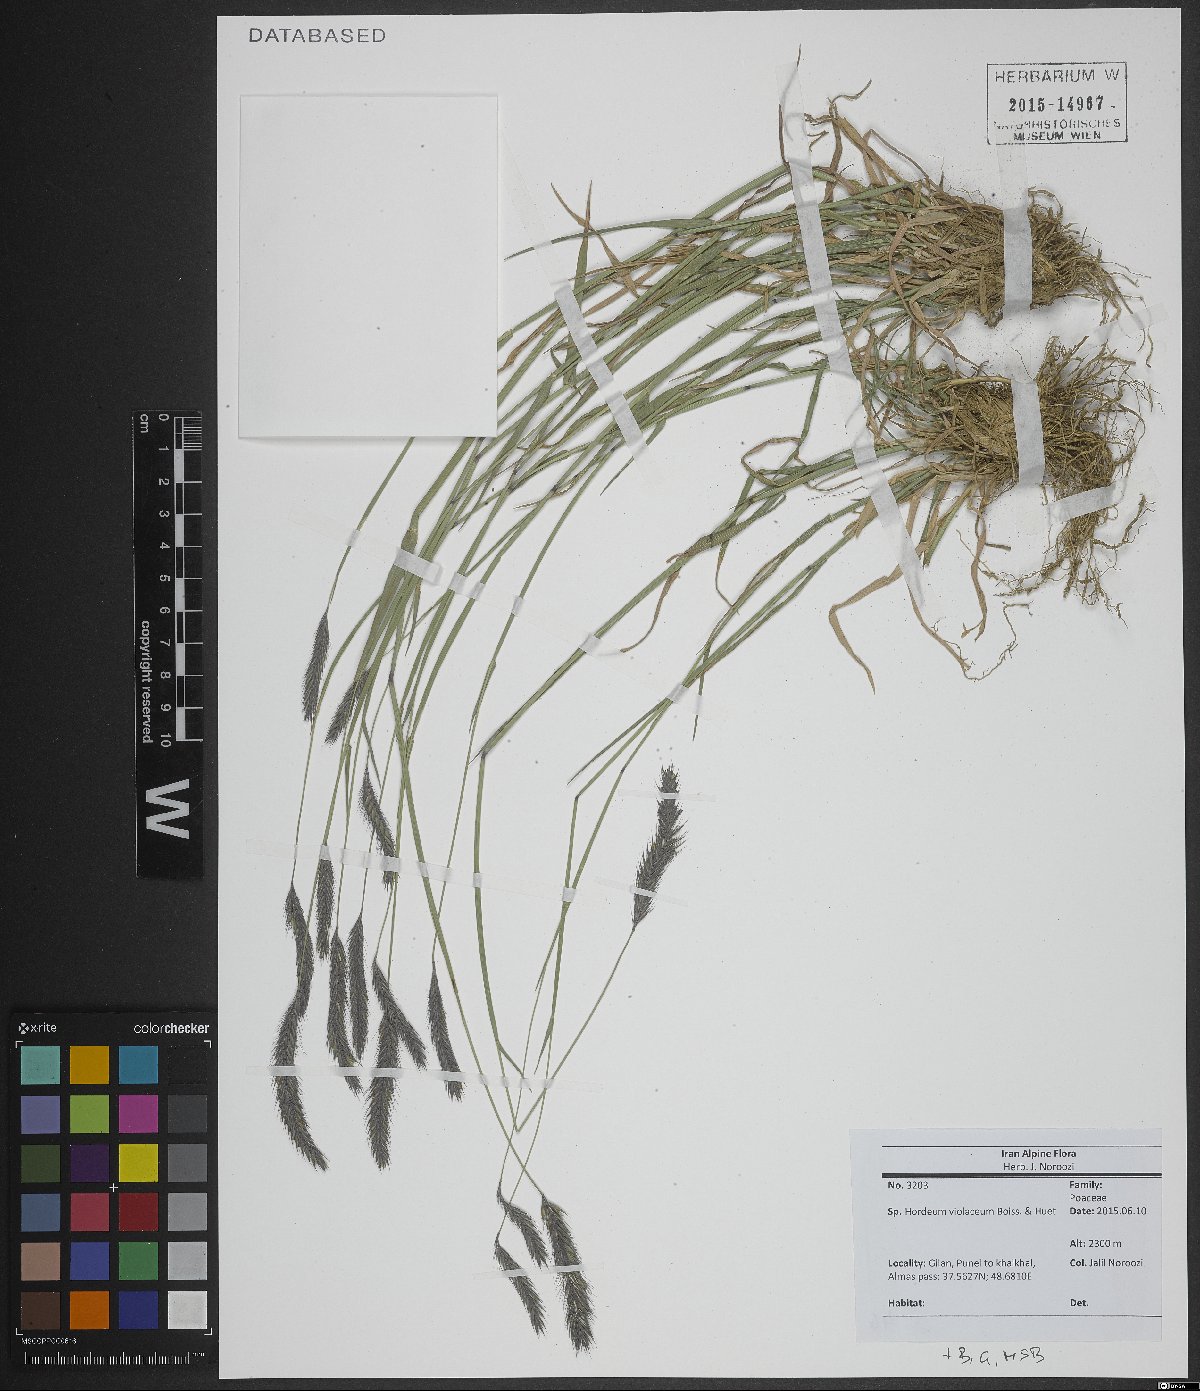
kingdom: Plantae
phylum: Tracheophyta
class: Liliopsida
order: Poales
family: Poaceae
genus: Hordeum
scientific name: Hordeum brevisubulatum
